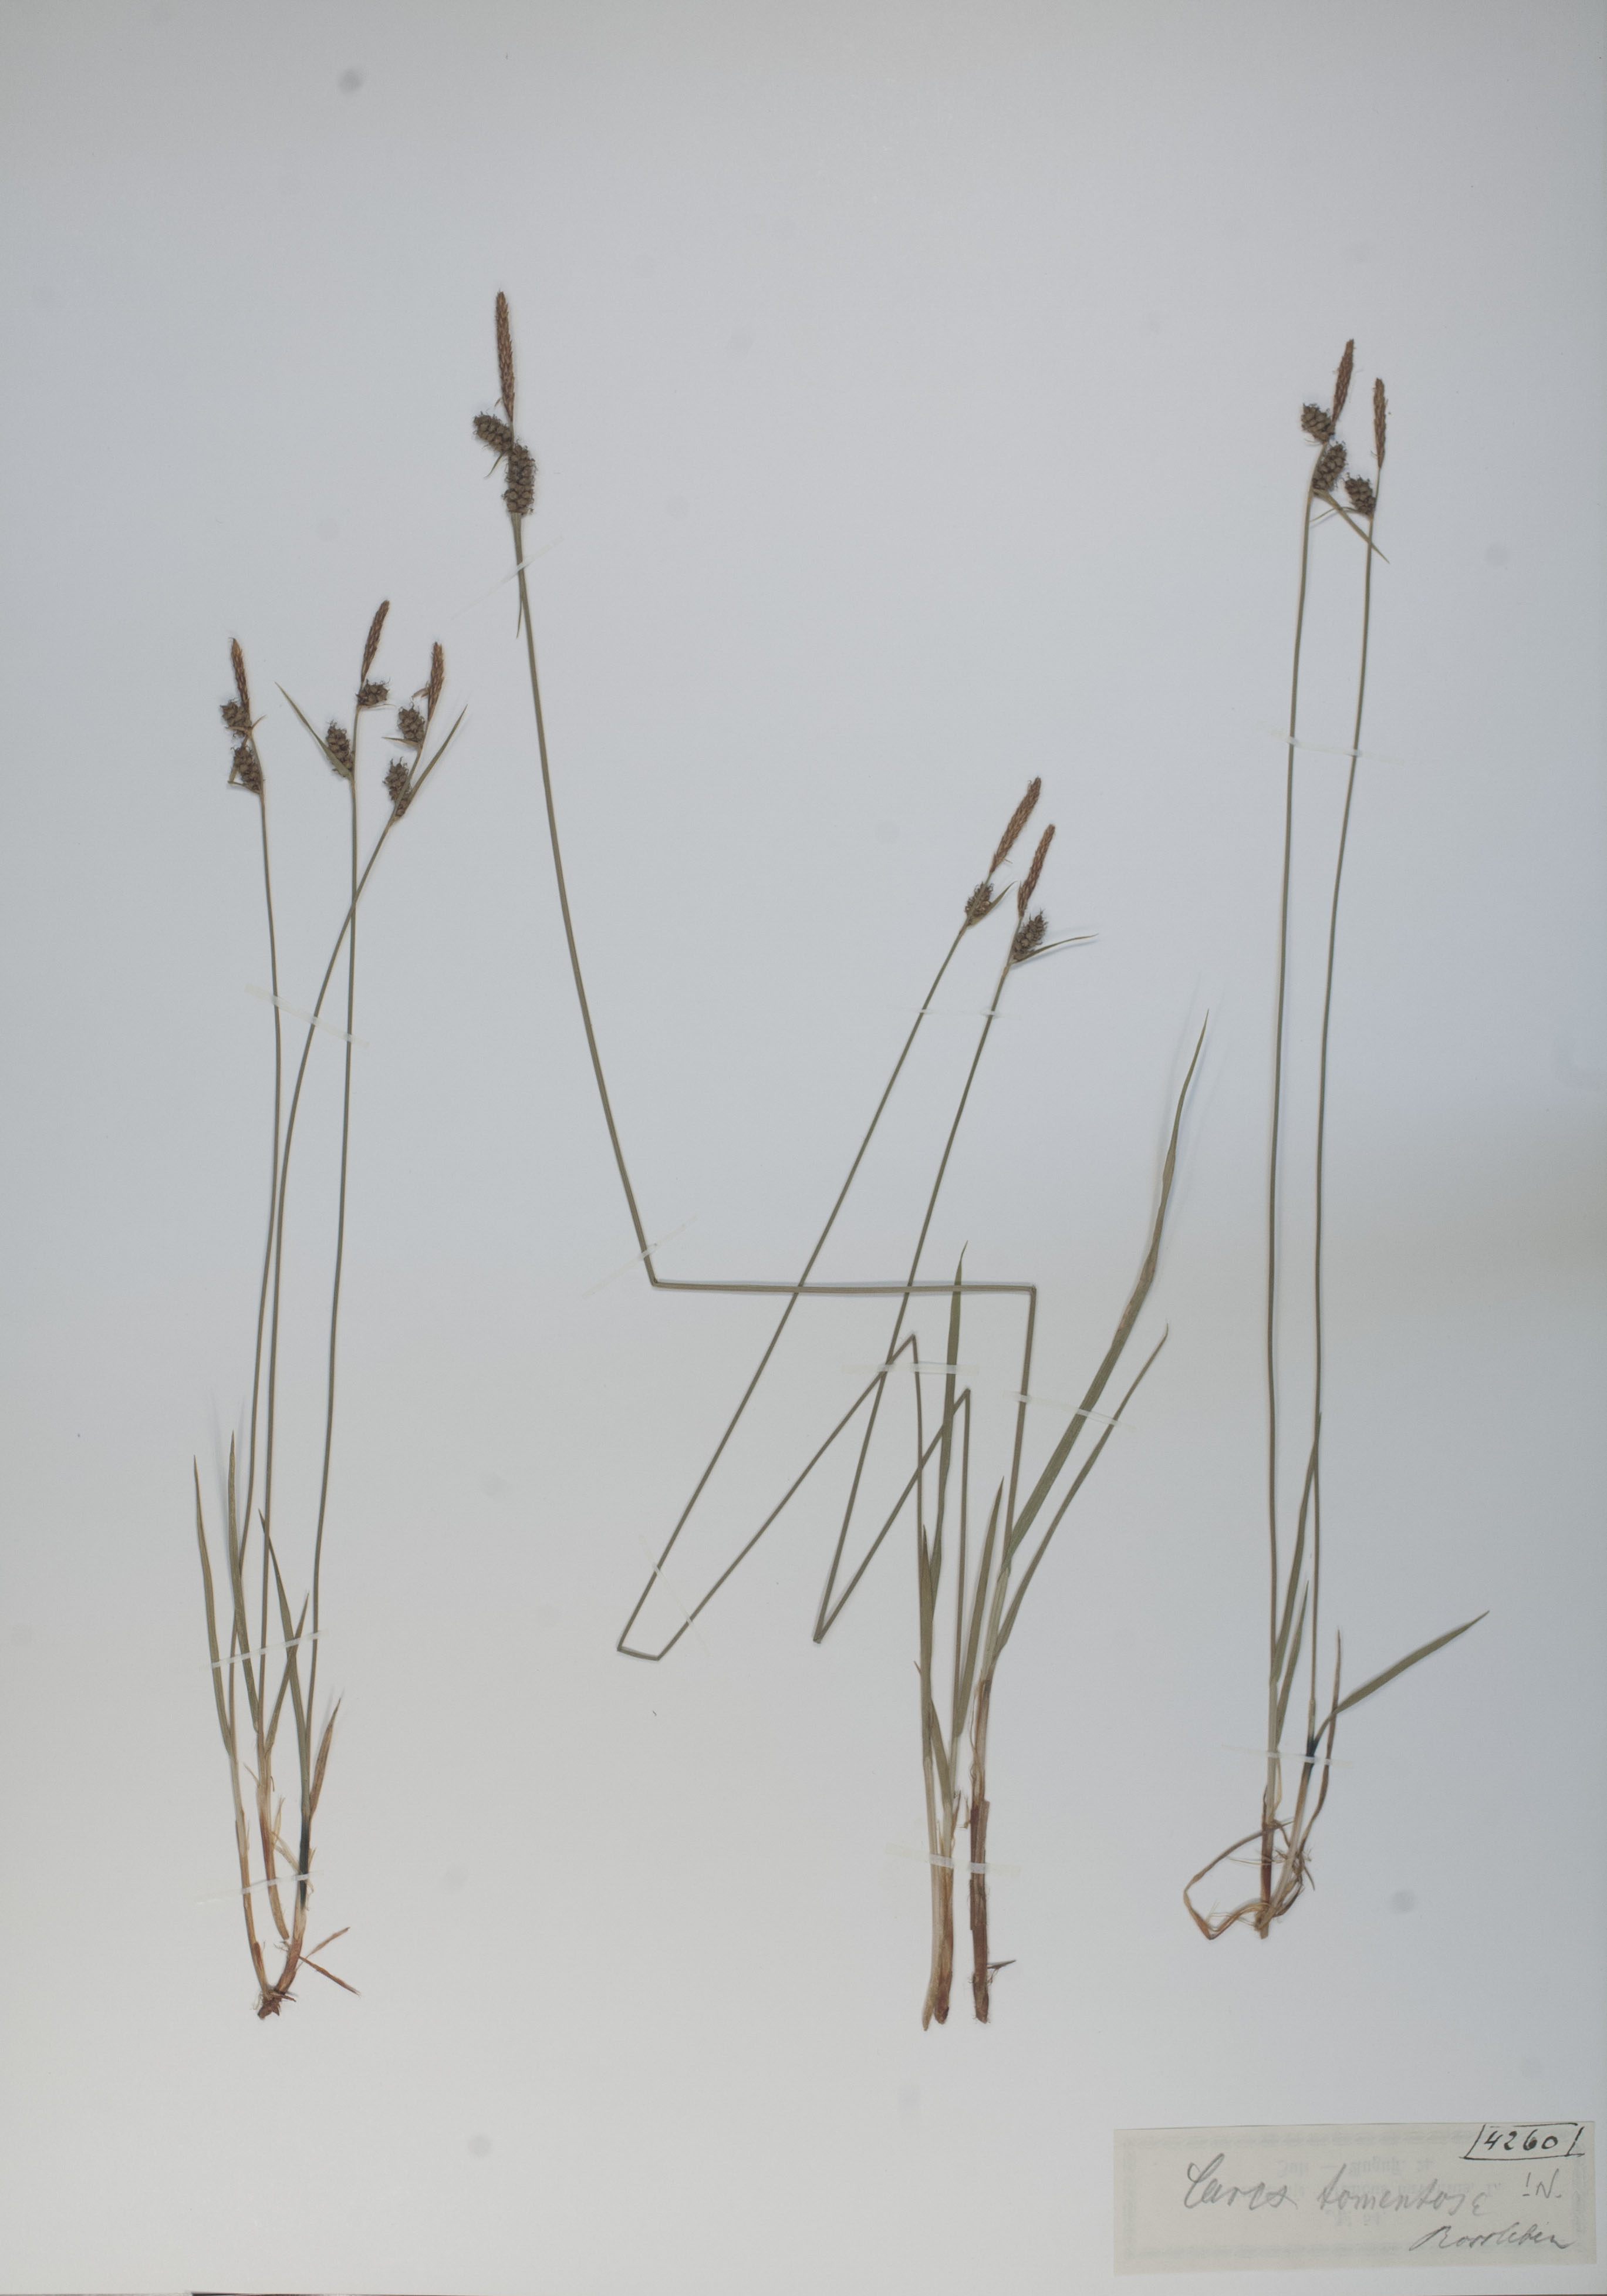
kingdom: Plantae
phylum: Tracheophyta
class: Liliopsida
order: Poales
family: Cyperaceae
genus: Carex
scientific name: Carex tomentosa
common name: Downy-fruited sedge
